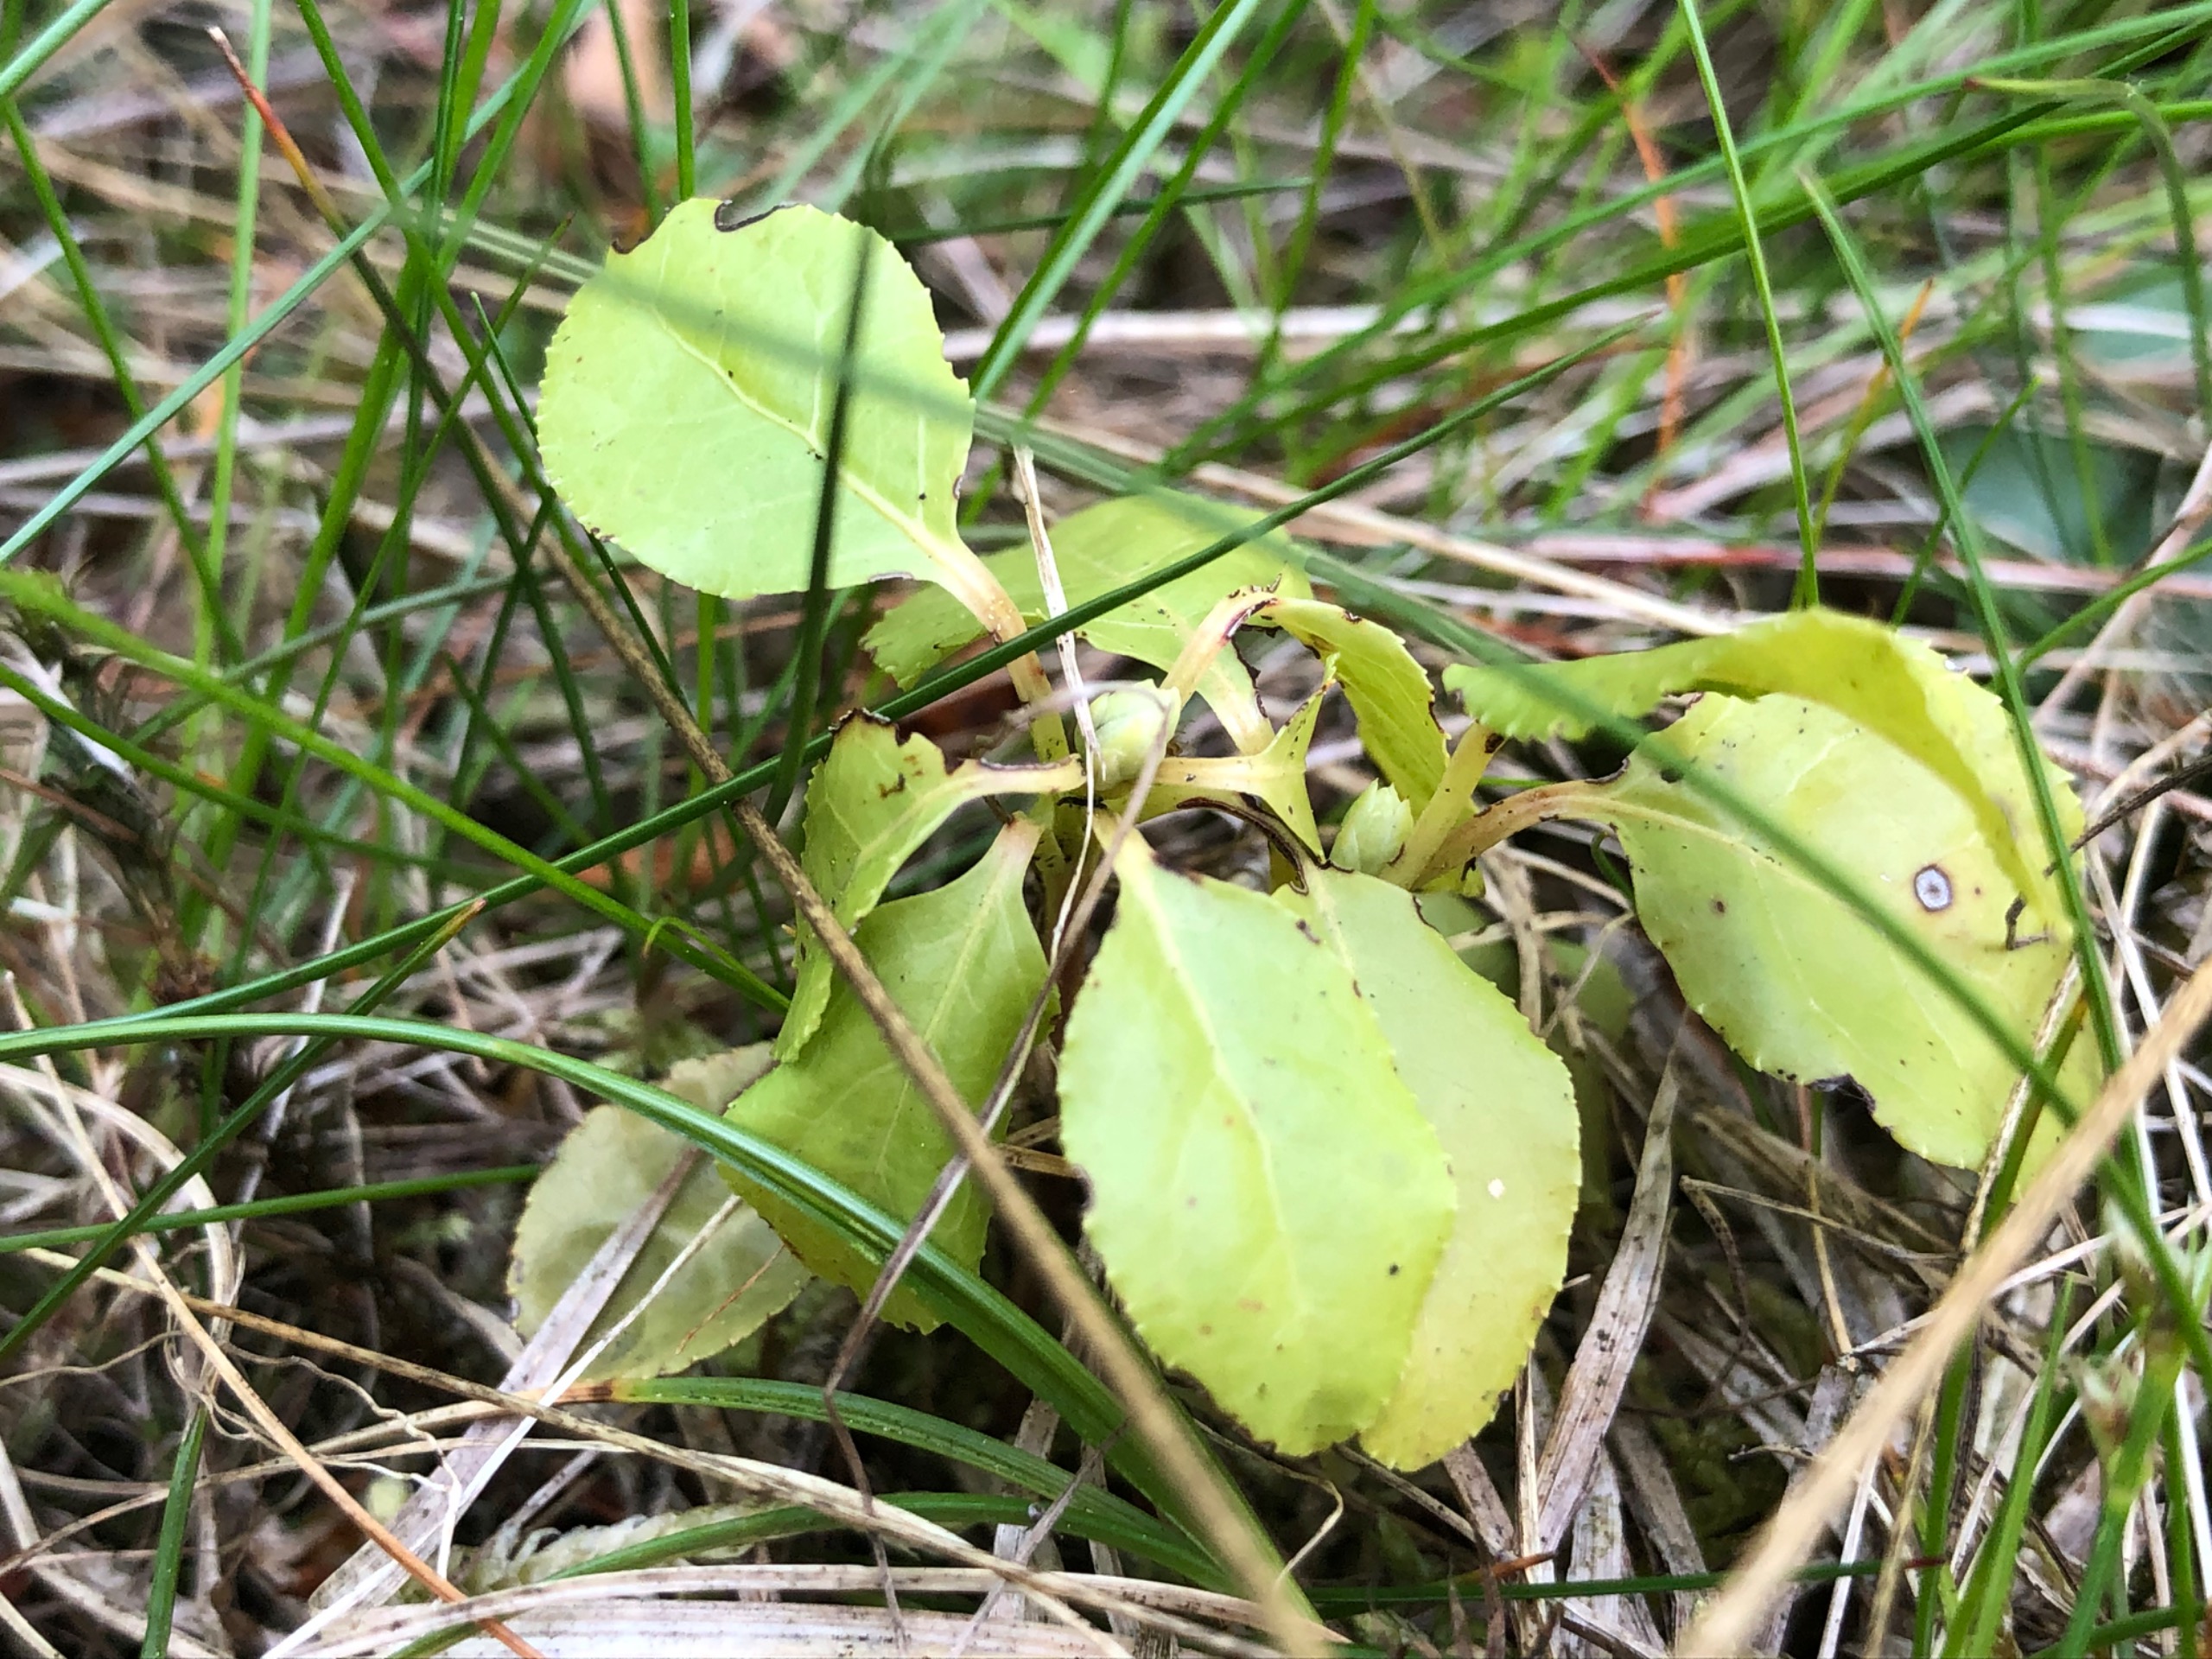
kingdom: Plantae
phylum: Tracheophyta
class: Magnoliopsida
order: Ericales
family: Ericaceae
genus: Orthilia
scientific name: Orthilia secunda
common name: Ensidig vintergrøn
